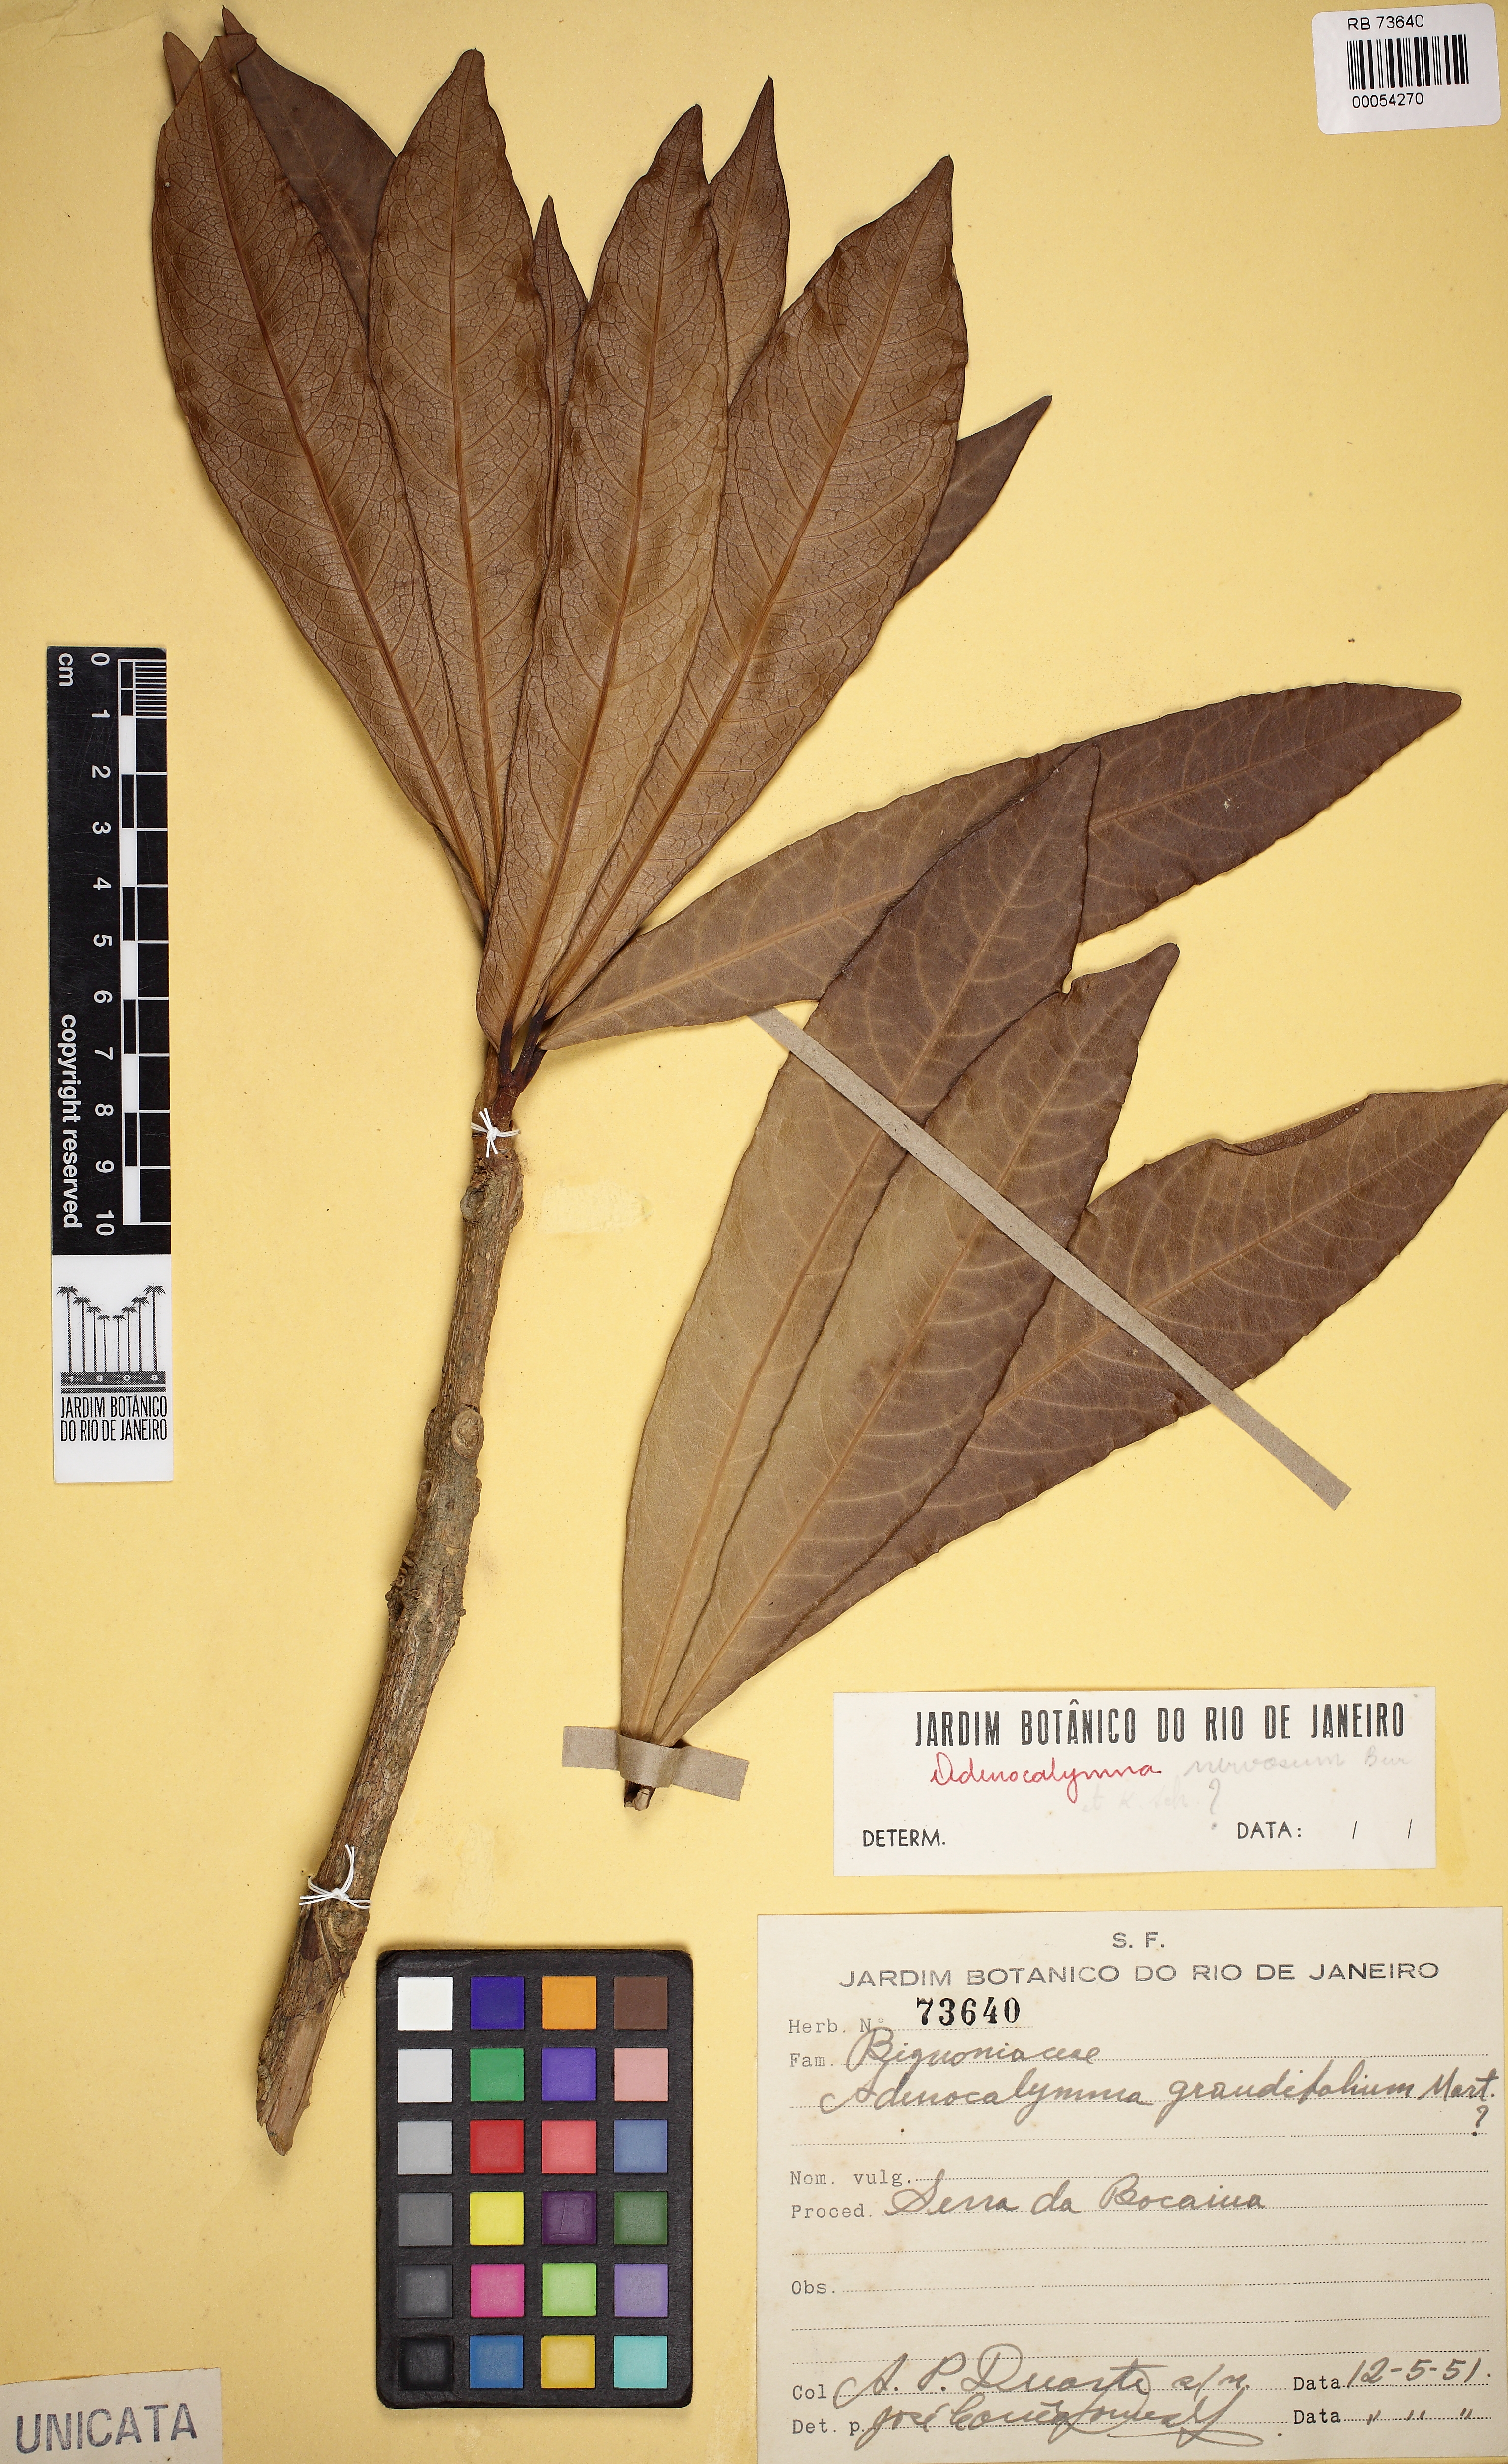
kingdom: Plantae
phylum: Tracheophyta
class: Magnoliopsida
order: Lamiales
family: Bignoniaceae
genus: Adenocalymma
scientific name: Adenocalymma ternatum
